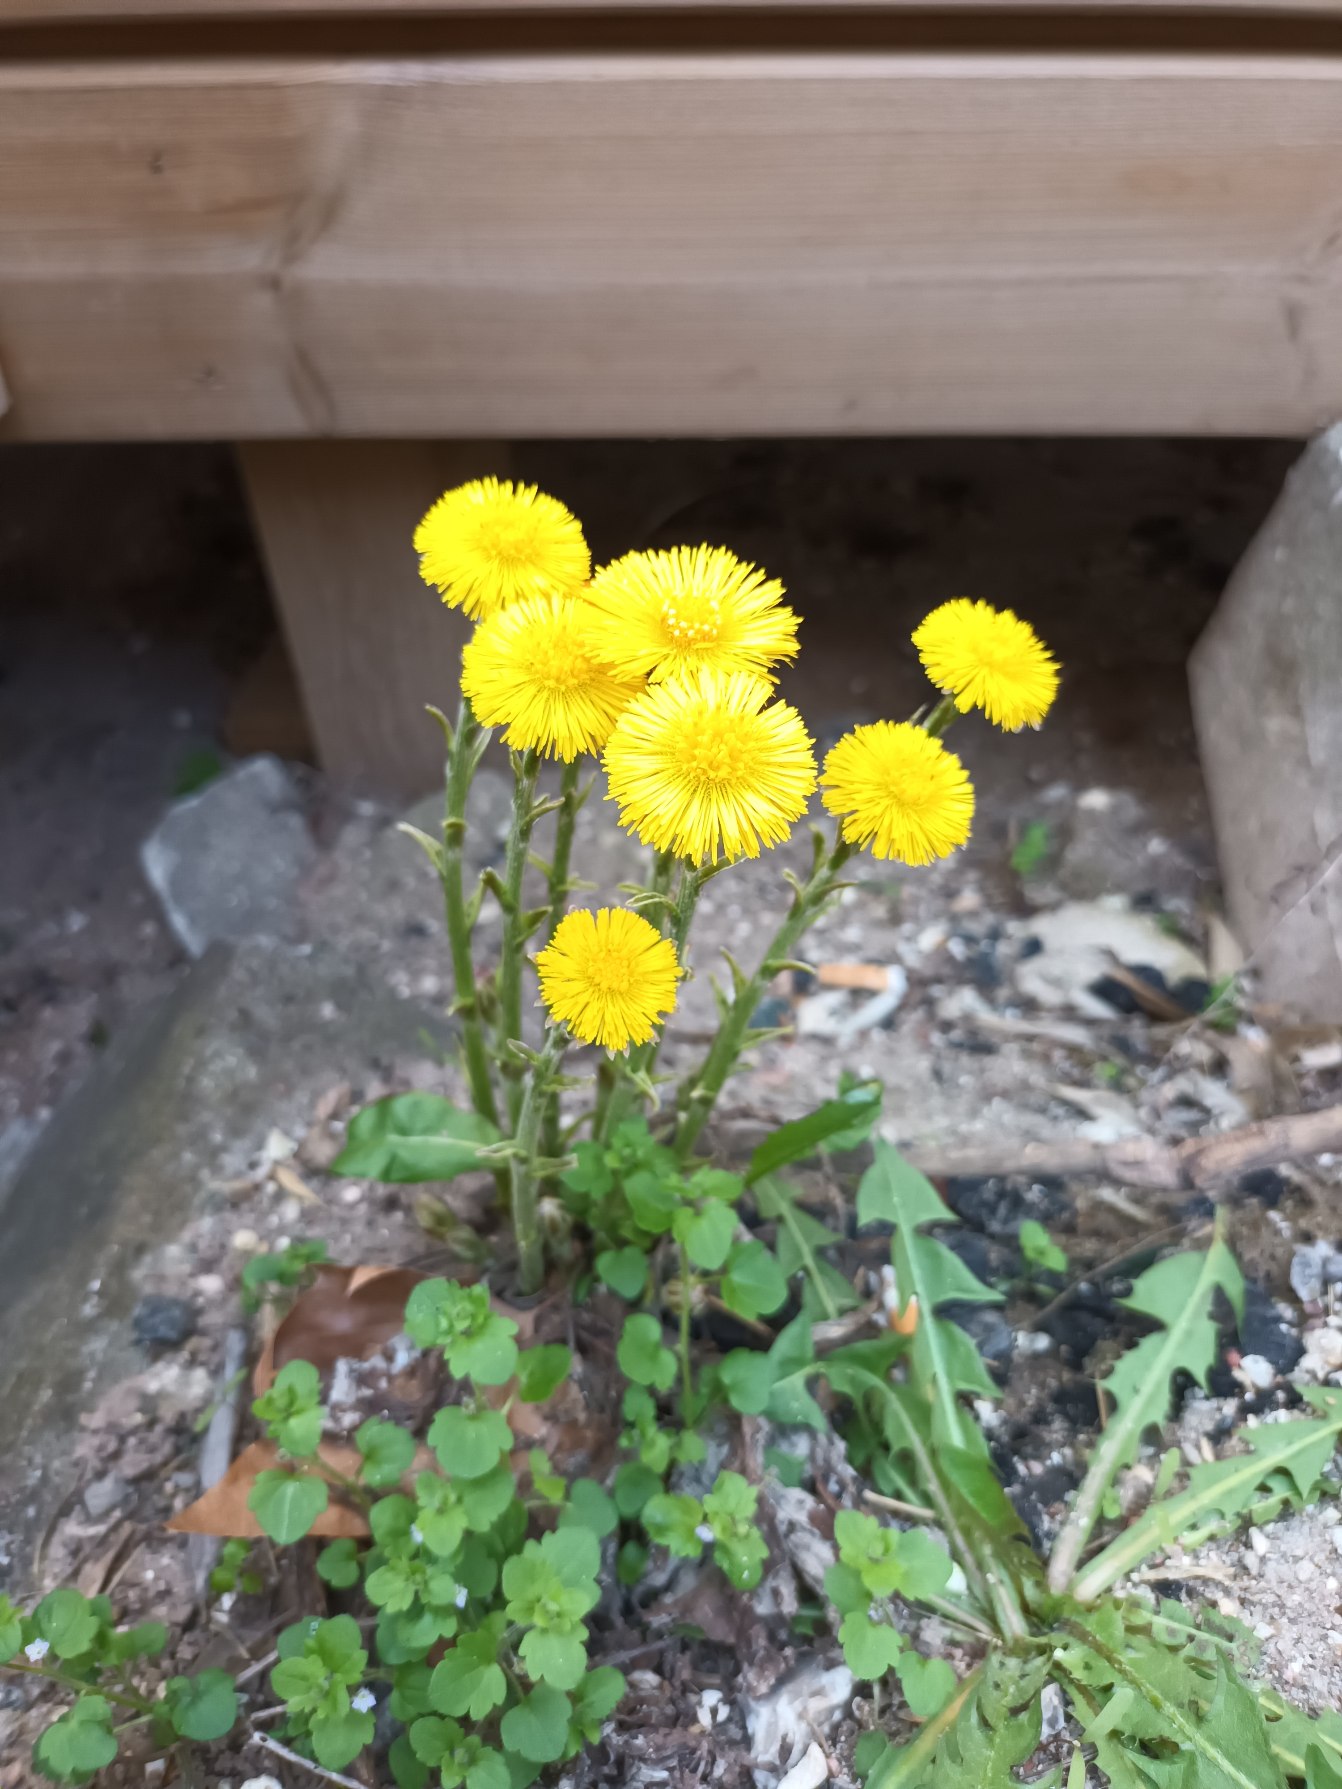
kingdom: Plantae
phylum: Tracheophyta
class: Magnoliopsida
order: Asterales
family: Asteraceae
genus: Tussilago
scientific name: Tussilago farfara
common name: Følfod
